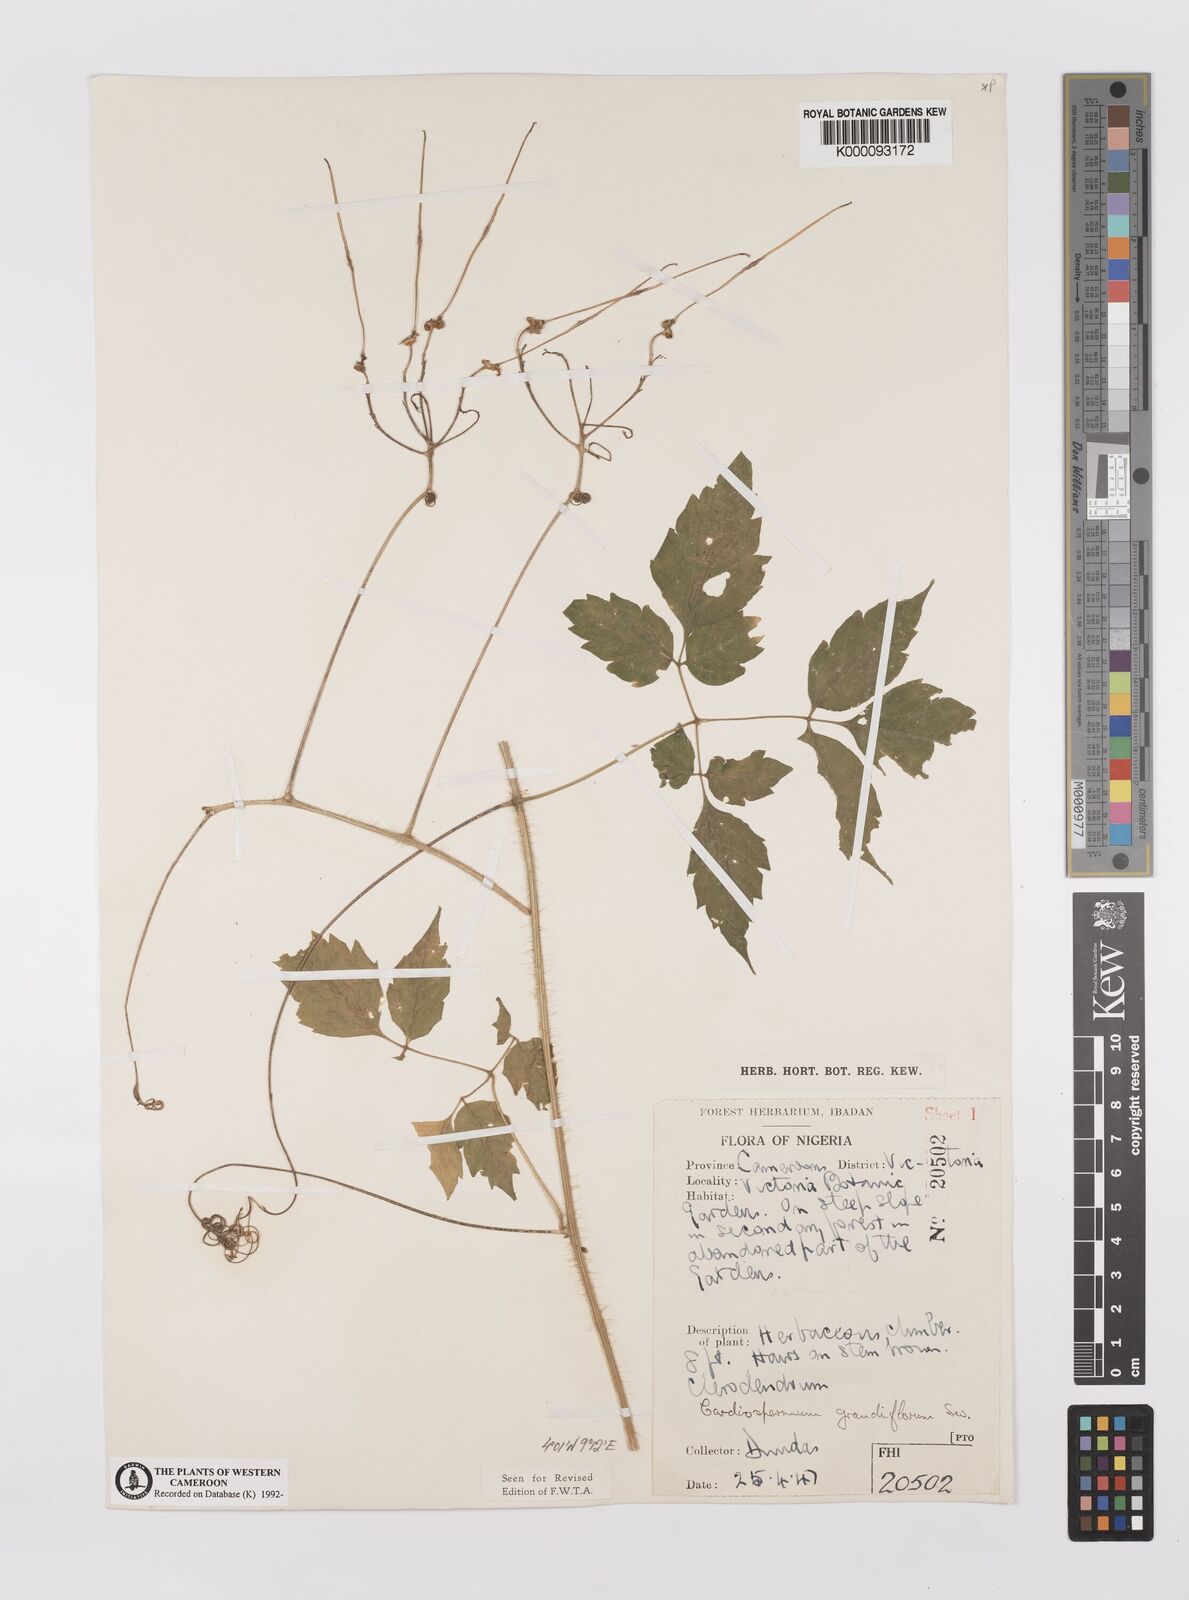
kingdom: Plantae
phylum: Tracheophyta
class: Magnoliopsida
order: Sapindales
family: Sapindaceae
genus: Cardiospermum
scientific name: Cardiospermum grandiflorum
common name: Balloon vine
